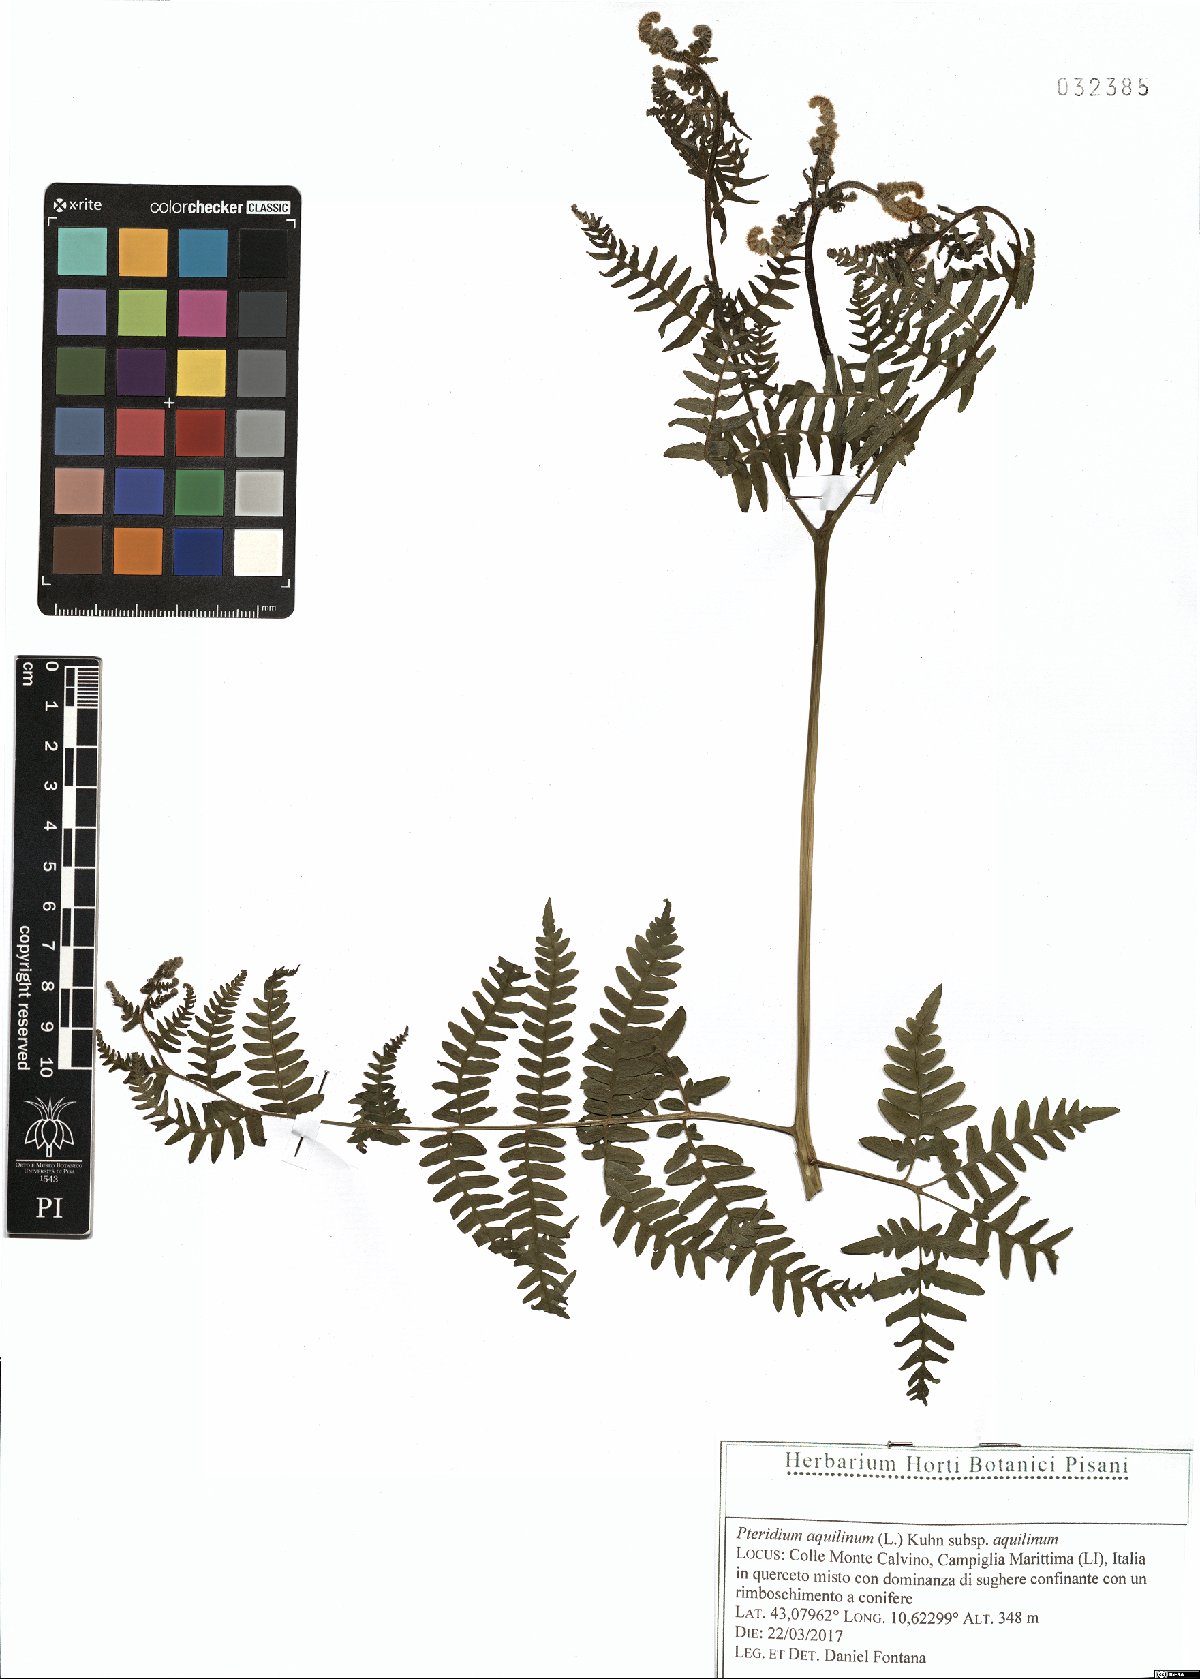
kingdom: Plantae
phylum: Tracheophyta
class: Polypodiopsida
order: Polypodiales
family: Dennstaedtiaceae
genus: Pteridium
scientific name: Pteridium aquilinum
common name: Bracken
